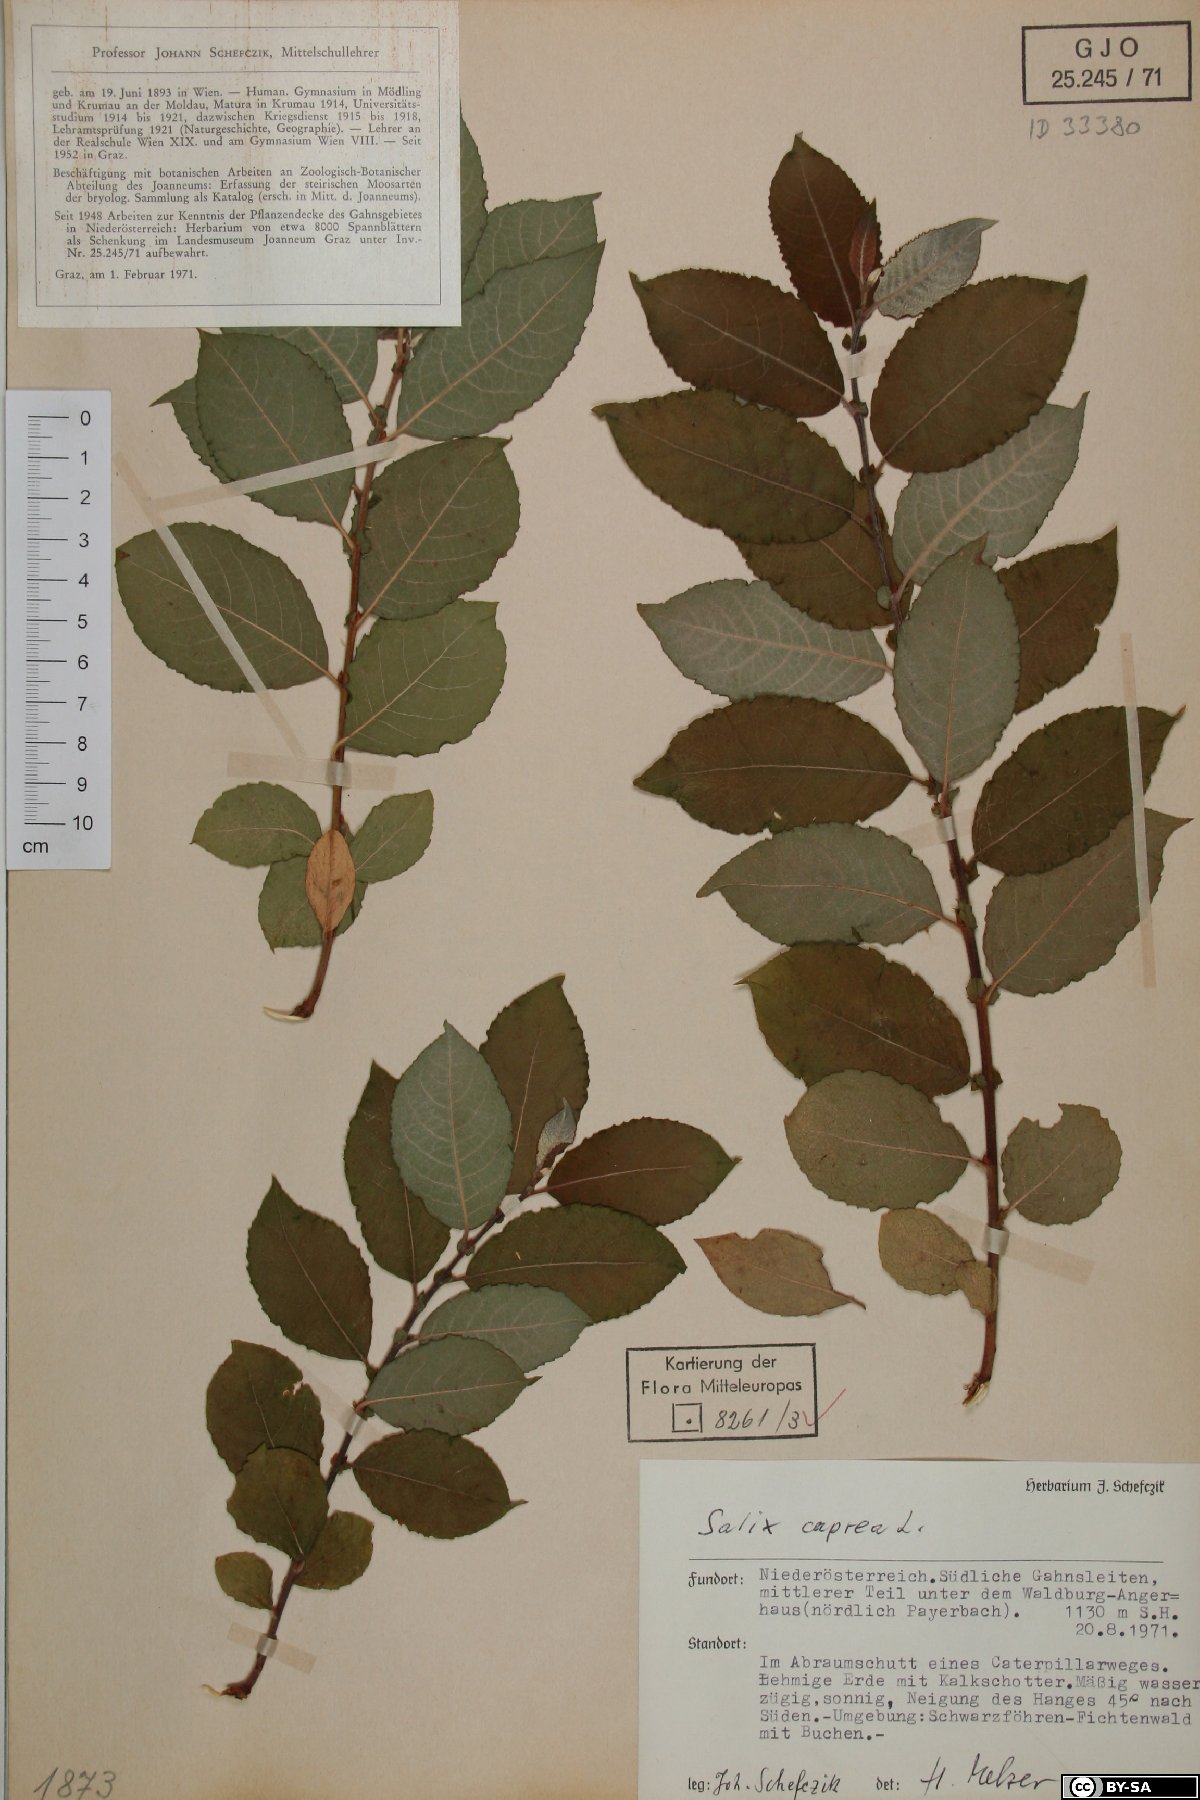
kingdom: Plantae
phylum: Tracheophyta
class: Magnoliopsida
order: Malpighiales
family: Salicaceae
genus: Salix
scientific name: Salix caprea
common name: Goat willow
